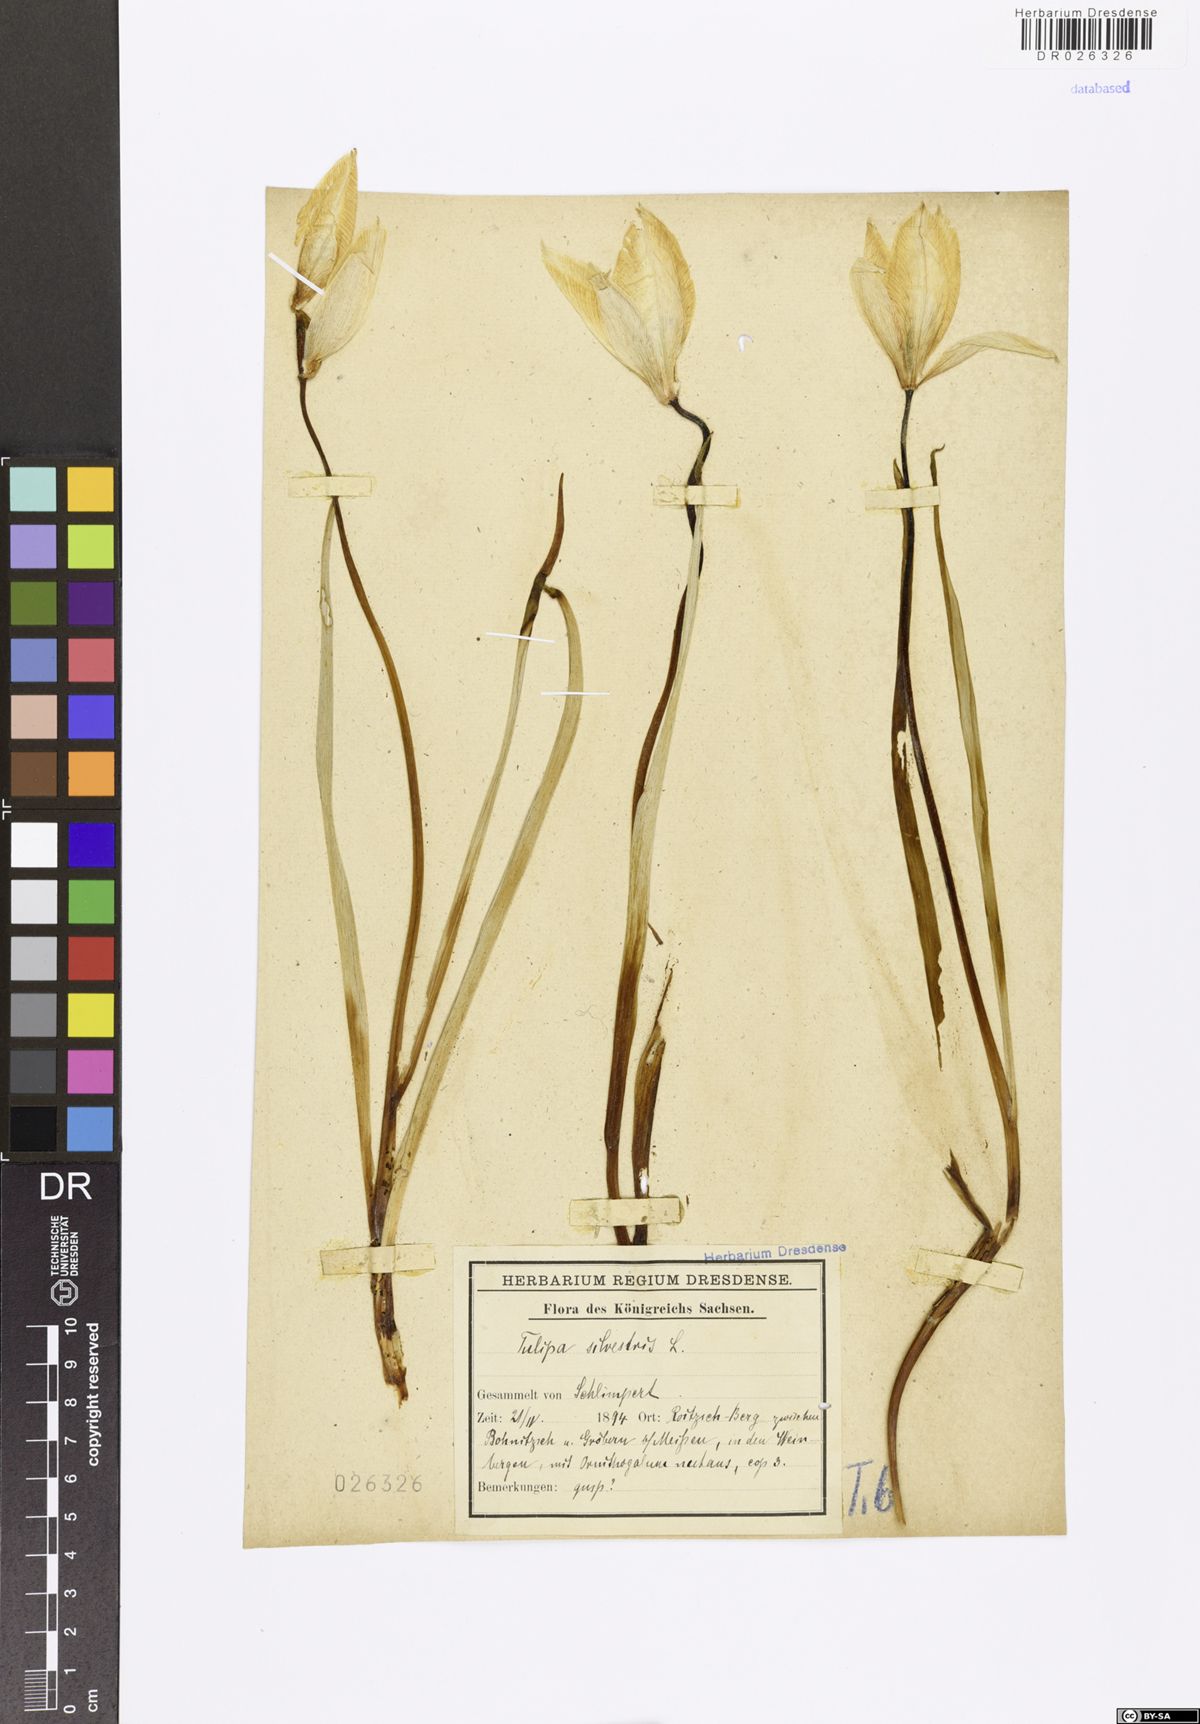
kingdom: Plantae
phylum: Tracheophyta
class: Liliopsida
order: Liliales
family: Liliaceae
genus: Tulipa
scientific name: Tulipa sylvestris
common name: Wild tulip
